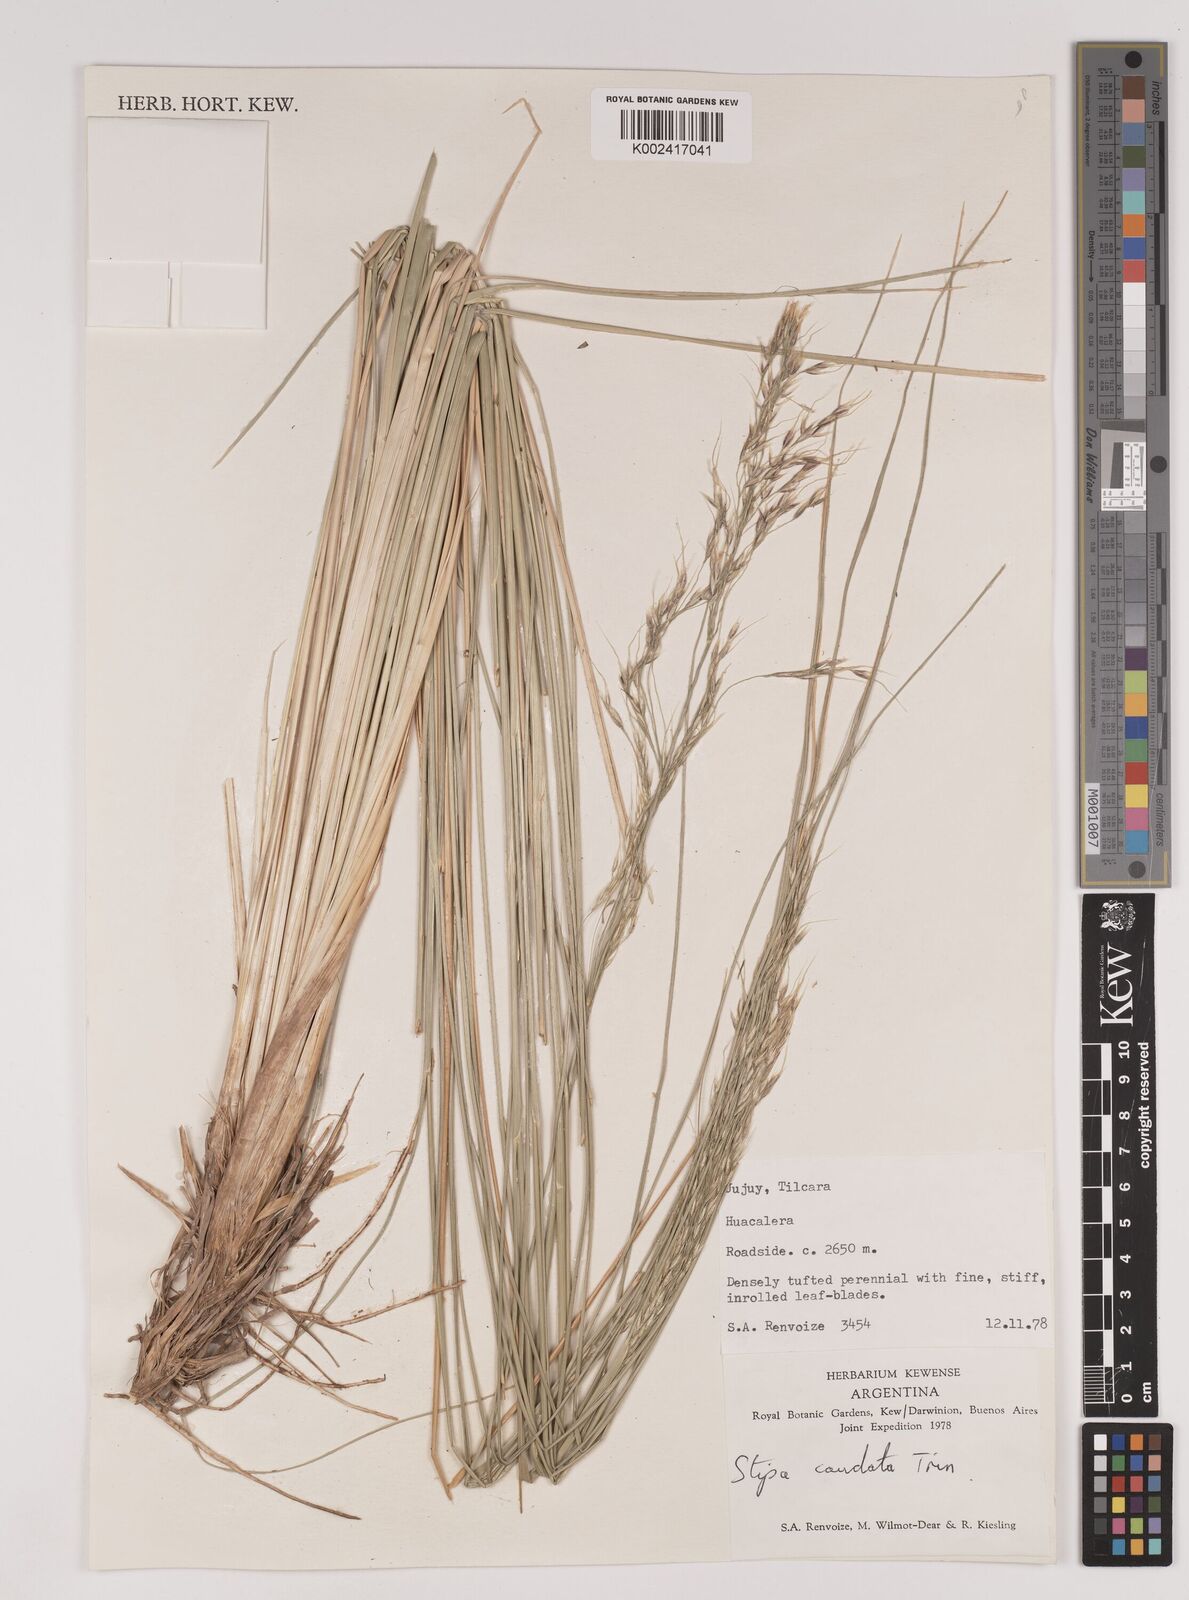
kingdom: Plantae
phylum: Tracheophyta
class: Liliopsida
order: Poales
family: Poaceae
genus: Amelichloa
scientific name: Amelichloa caudata
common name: Chilean ricegrass
